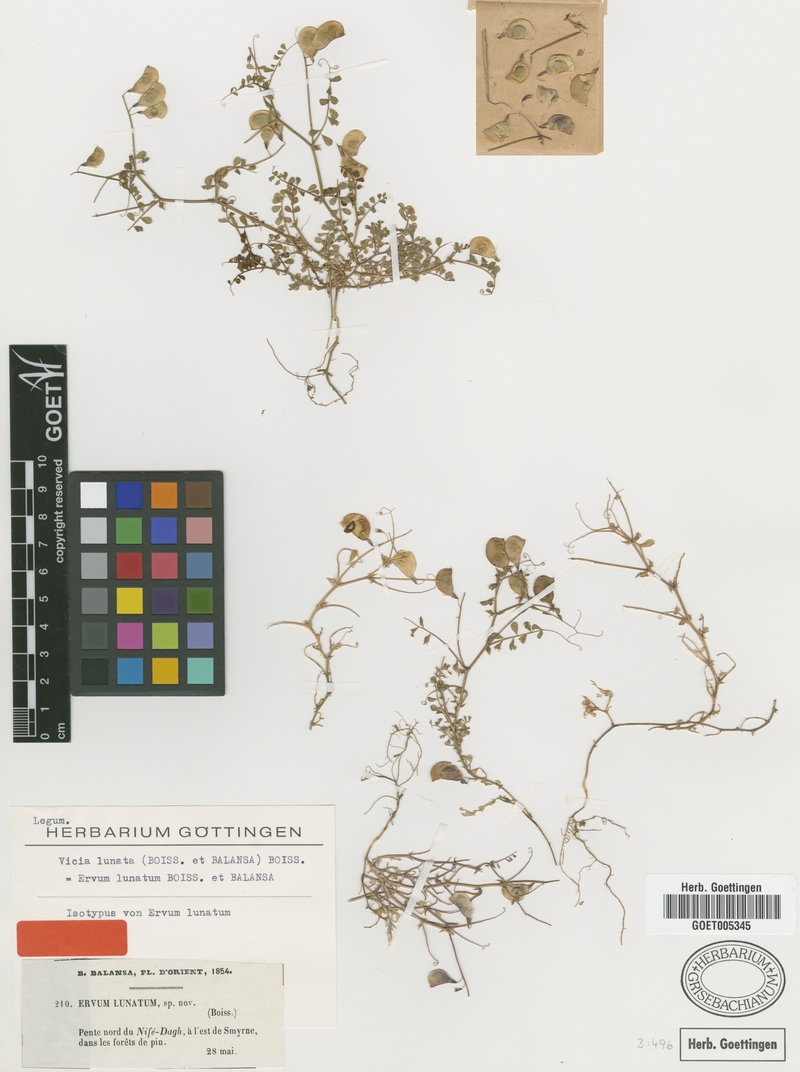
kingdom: Plantae
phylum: Tracheophyta
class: Magnoliopsida
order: Fabales
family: Fabaceae
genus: Vicia
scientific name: Vicia lunata
